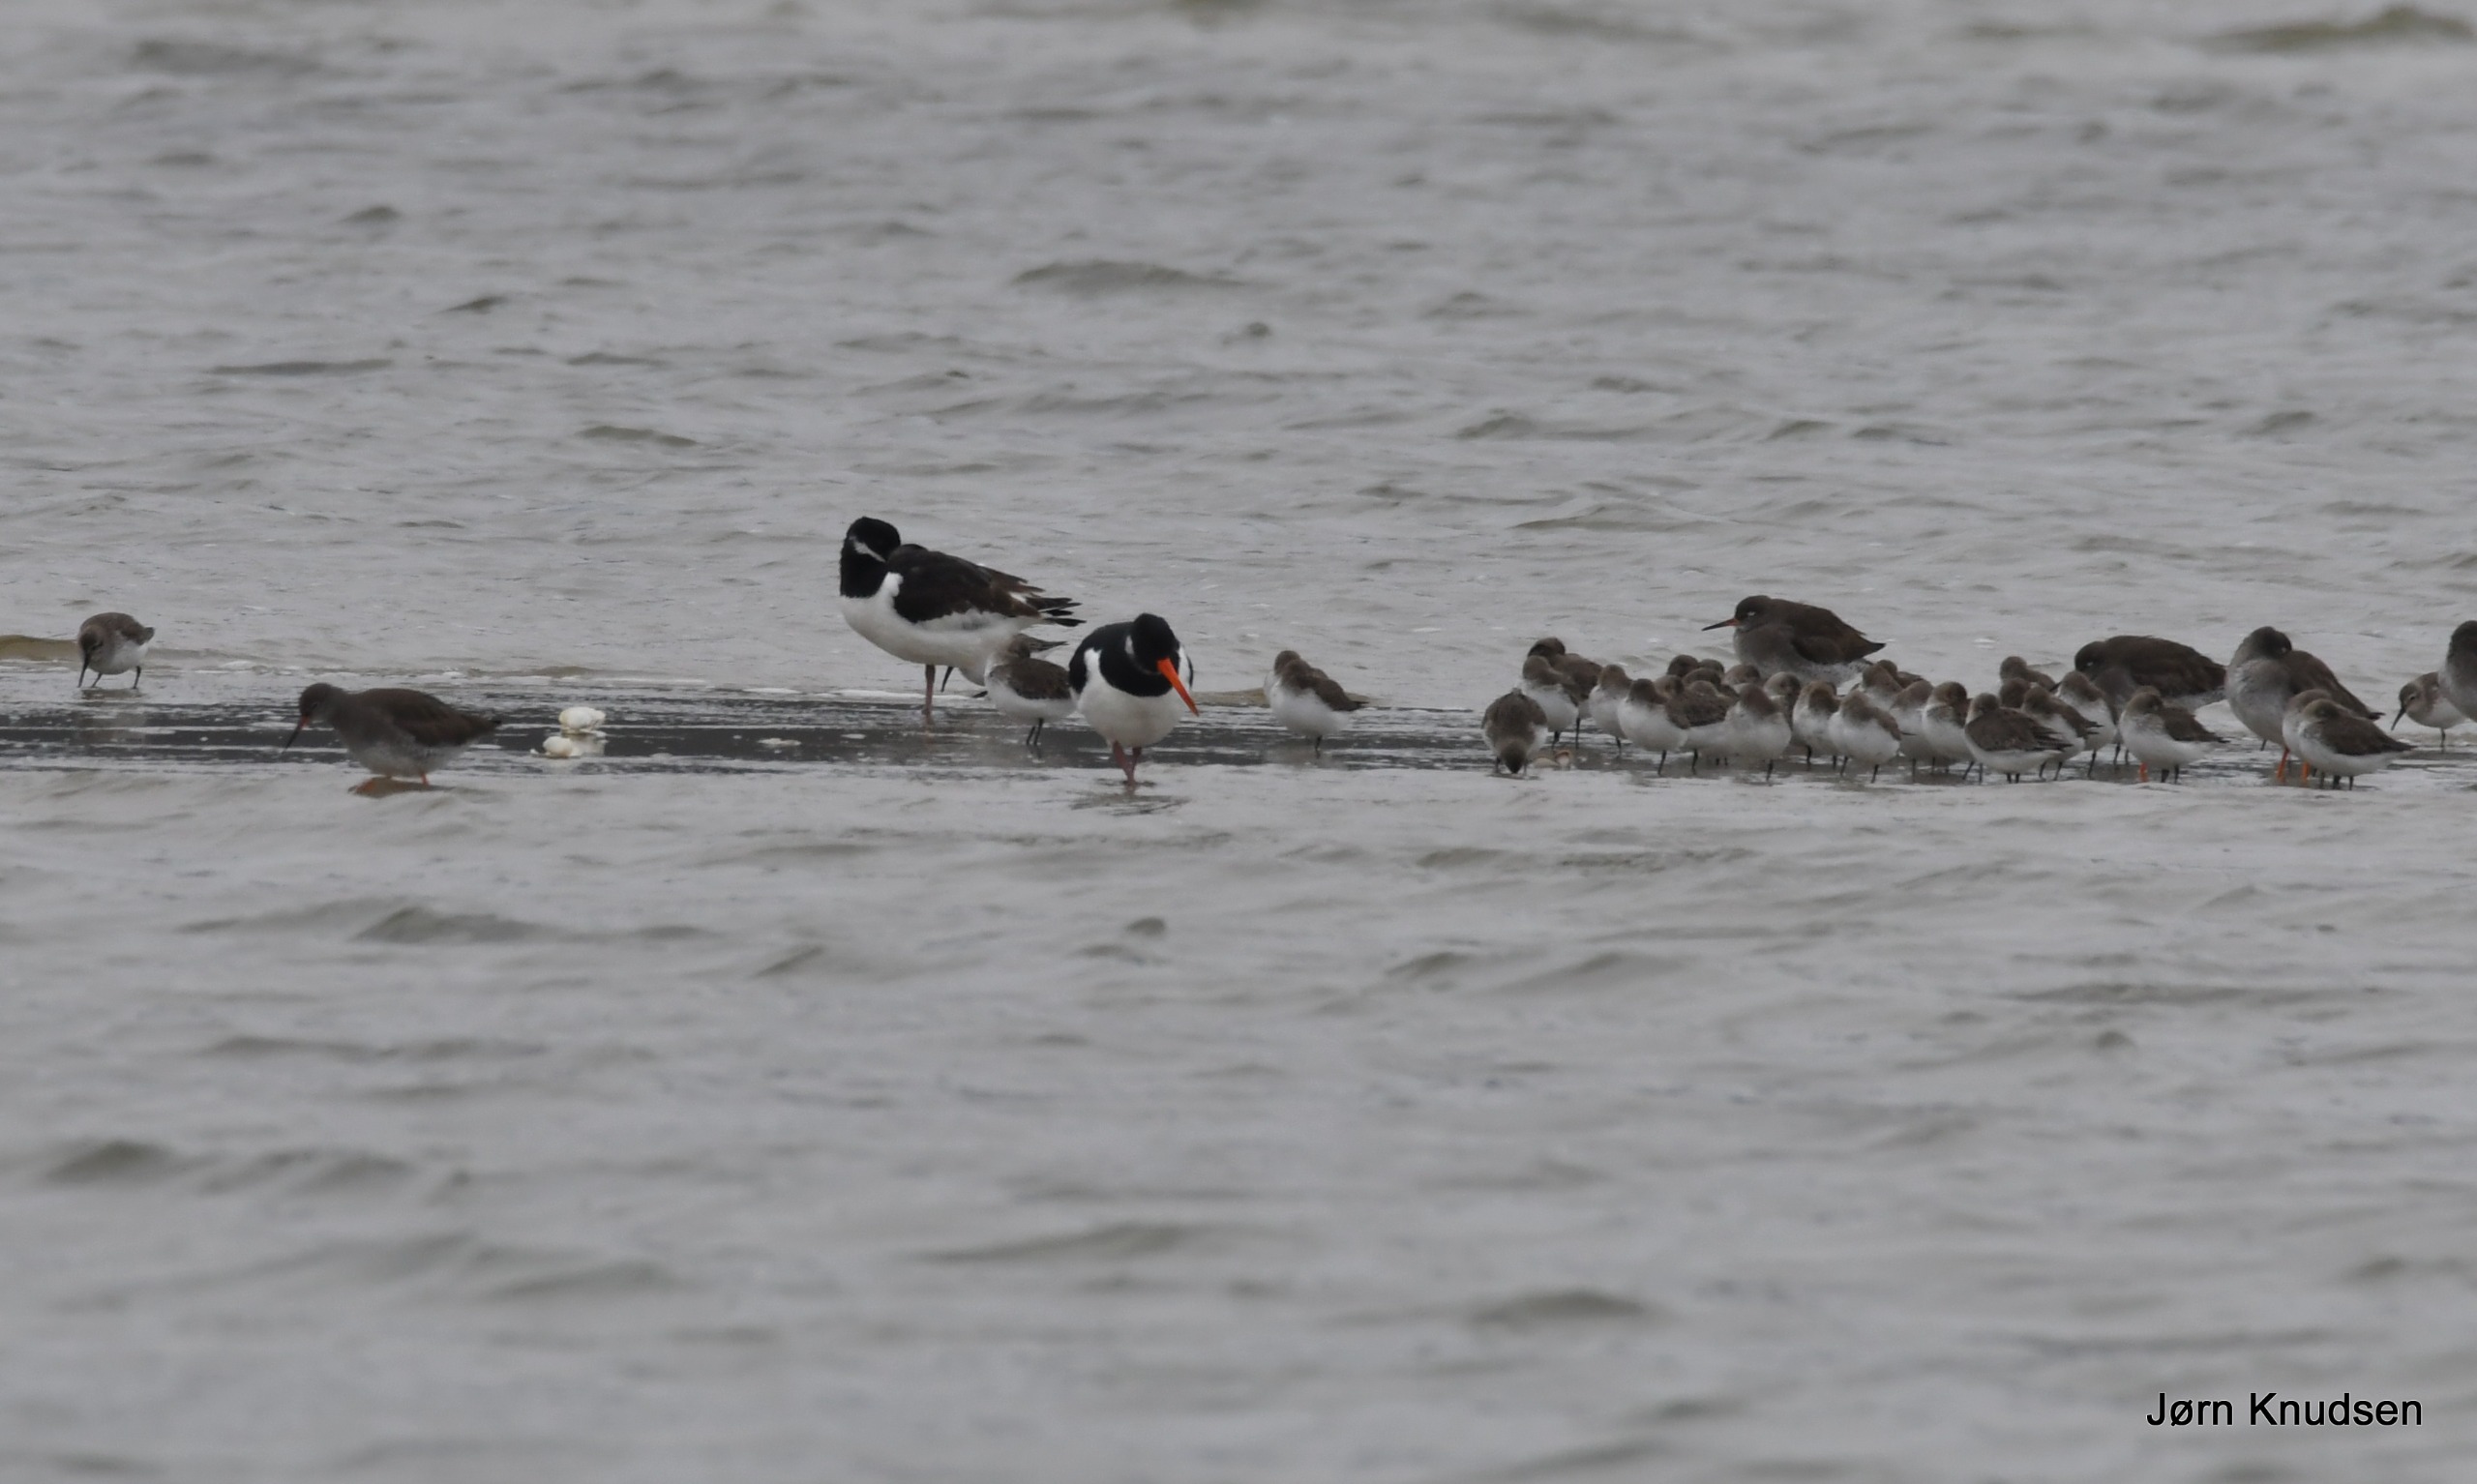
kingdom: Animalia
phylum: Chordata
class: Aves
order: Charadriiformes
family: Haematopodidae
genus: Haematopus
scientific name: Haematopus ostralegus
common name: Strandskade
